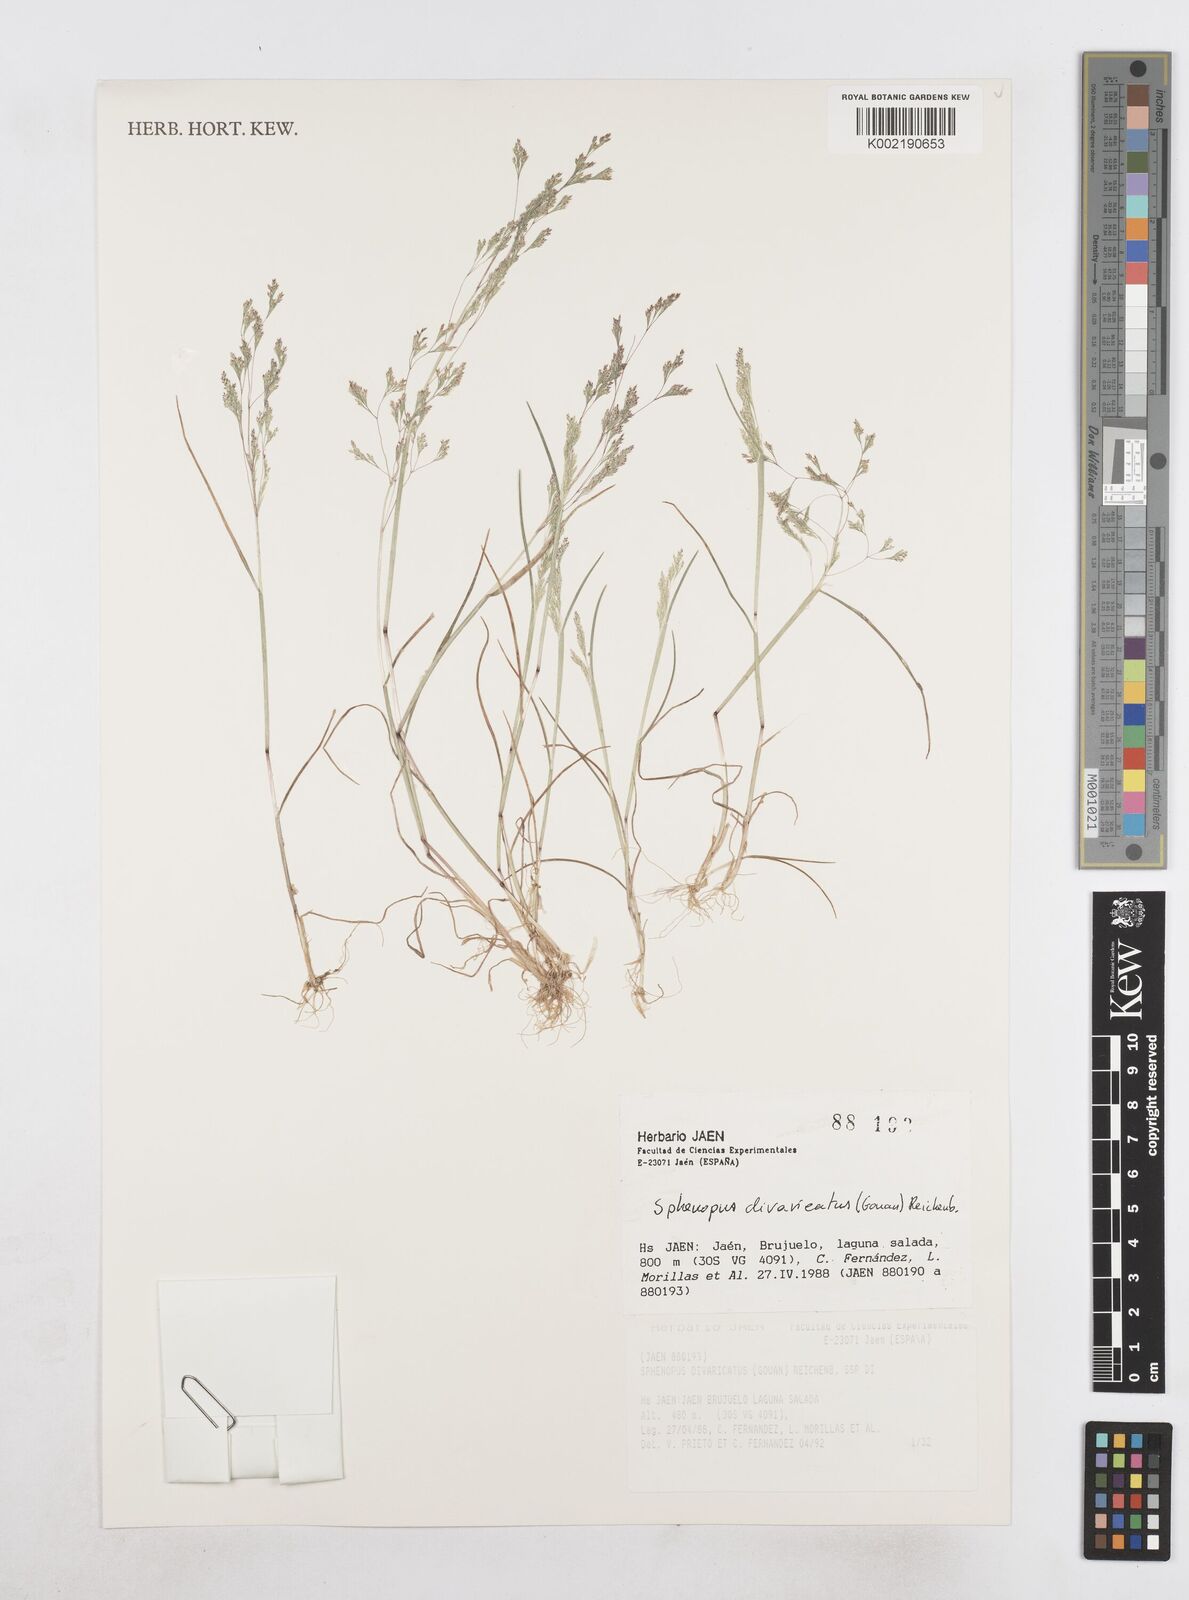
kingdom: Plantae
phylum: Tracheophyta
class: Liliopsida
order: Poales
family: Poaceae
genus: Sphenopus
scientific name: Sphenopus divaricatus
